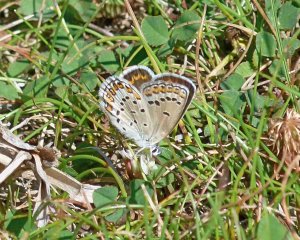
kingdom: Animalia
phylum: Arthropoda
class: Insecta
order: Lepidoptera
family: Lycaenidae
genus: Lycaeides
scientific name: Lycaeides melissa
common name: Melissa Blue
